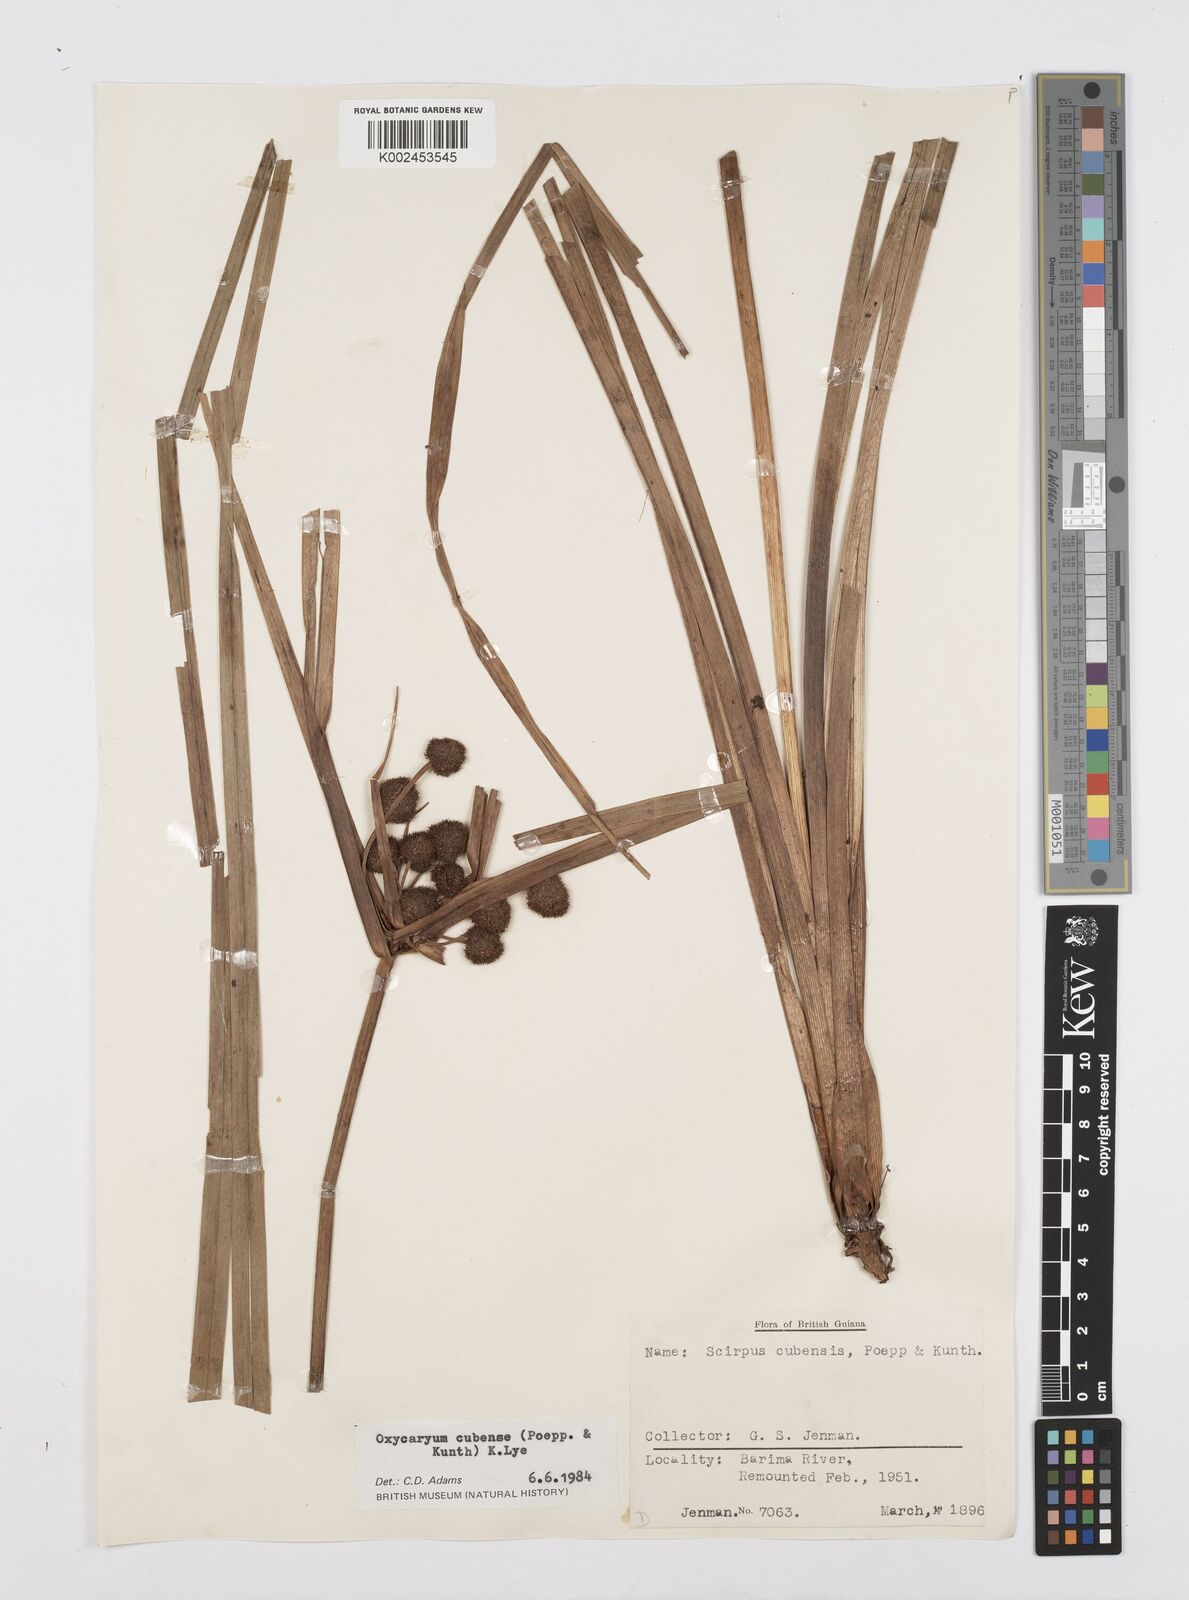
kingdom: Plantae
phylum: Tracheophyta
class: Liliopsida
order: Poales
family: Cyperaceae
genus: Cyperus
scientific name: Cyperus elegans
